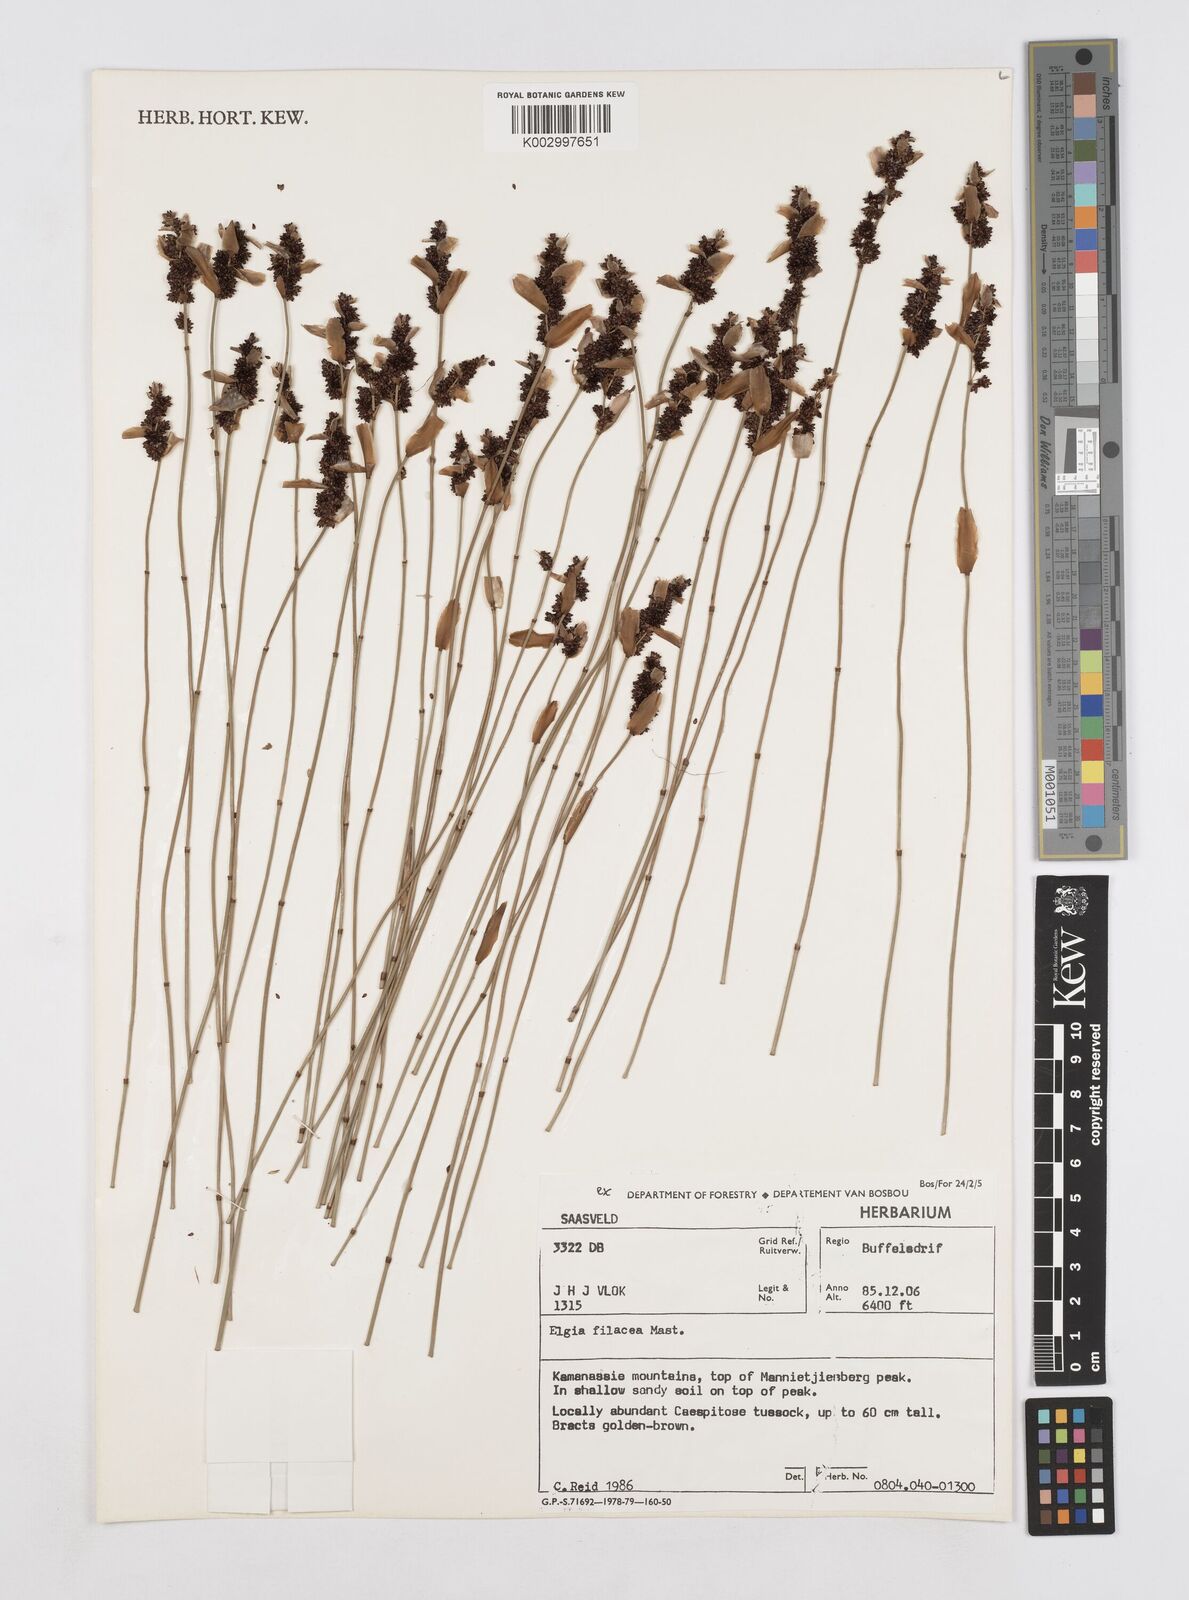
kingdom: Plantae
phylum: Tracheophyta
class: Liliopsida
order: Poales
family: Restionaceae
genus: Elegia
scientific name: Elegia filacea
